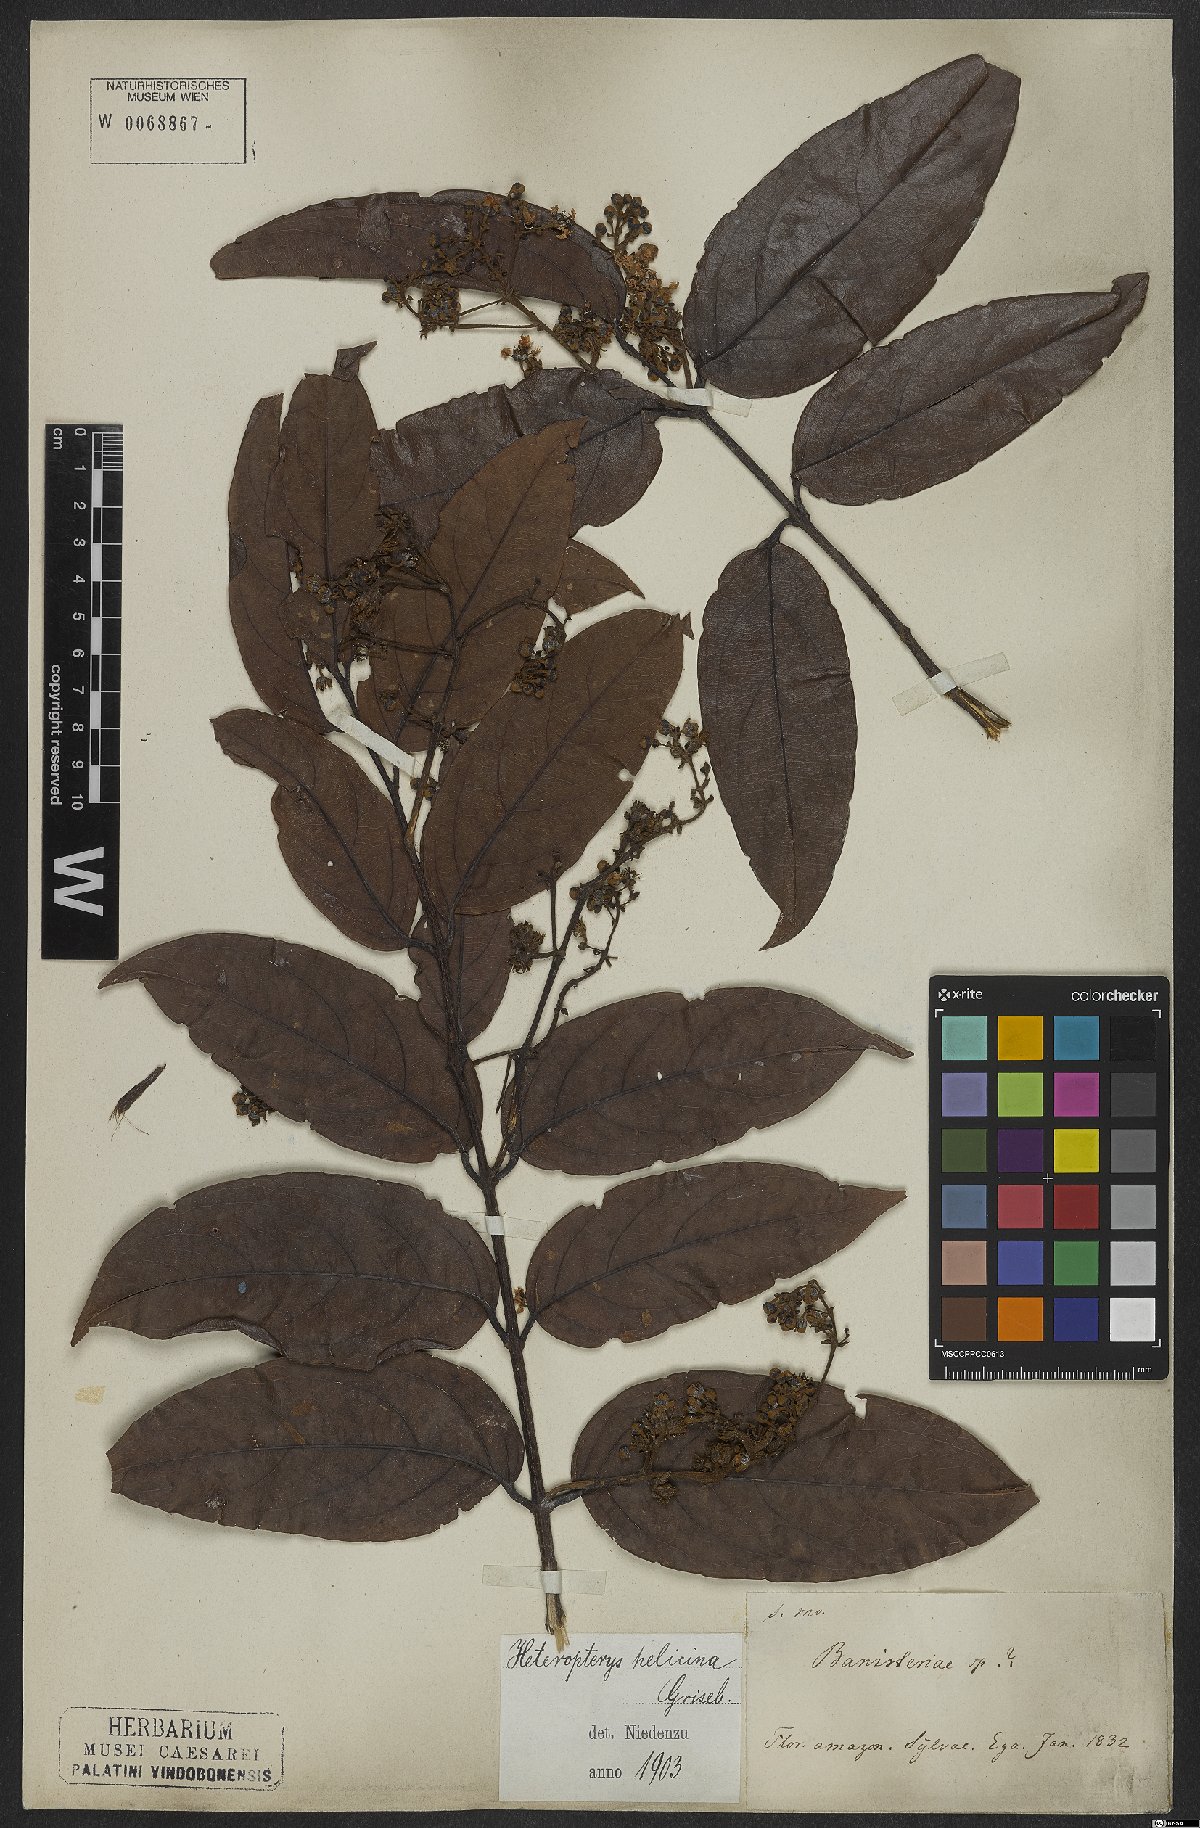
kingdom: Plantae
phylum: Tracheophyta
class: Magnoliopsida
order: Malpighiales
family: Malpighiaceae
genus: Heteropterys
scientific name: Heteropterys orinocensis
